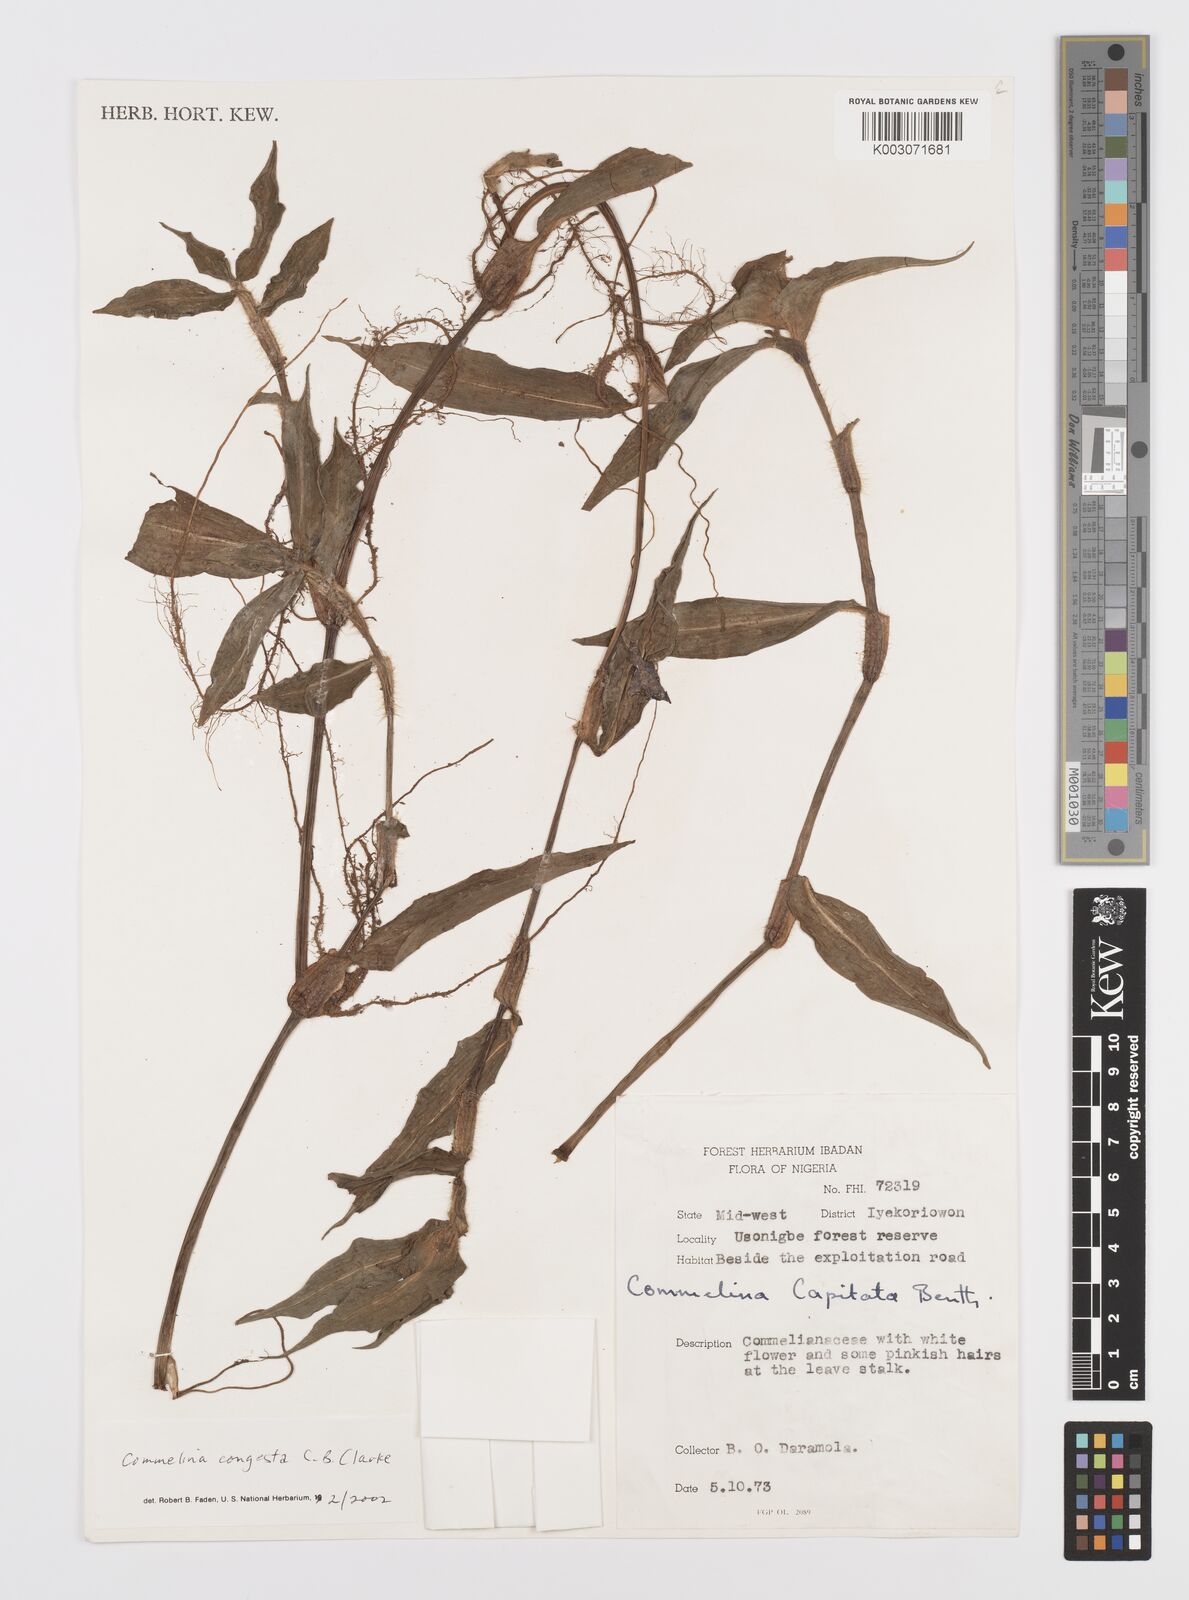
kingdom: Plantae
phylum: Tracheophyta
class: Liliopsida
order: Commelinales
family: Commelinaceae
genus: Commelina
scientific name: Commelina congesta
